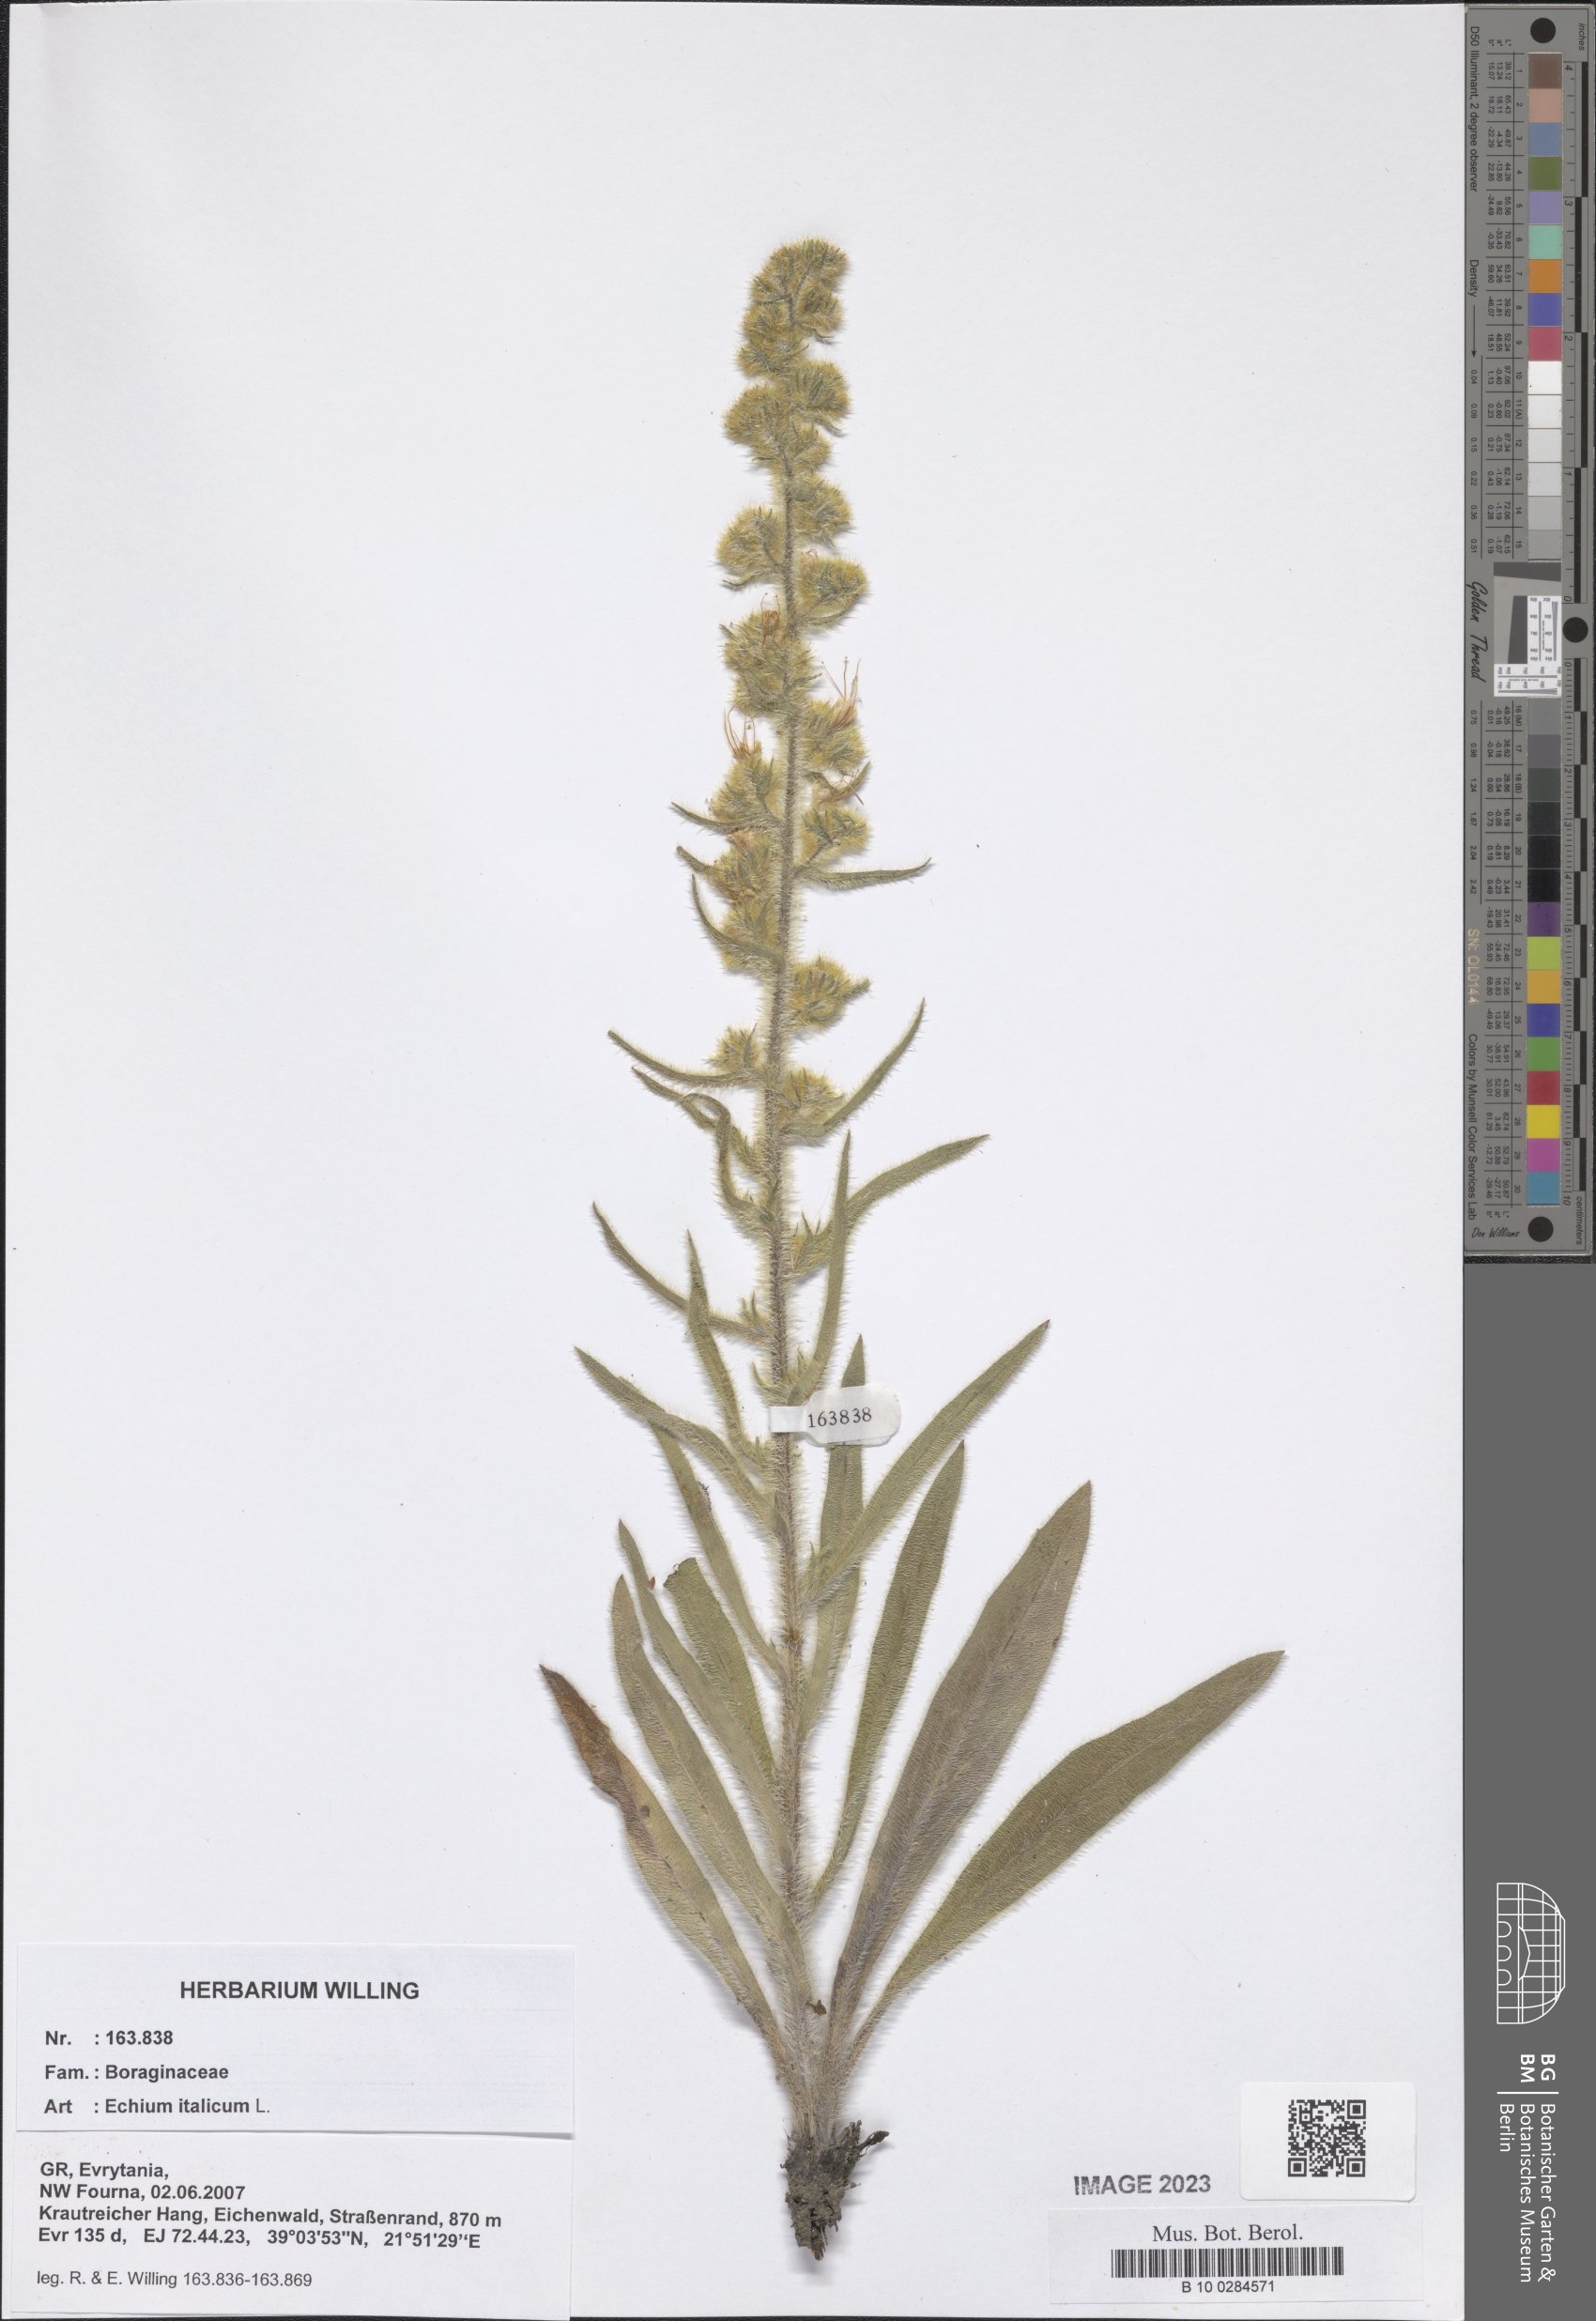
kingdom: Plantae
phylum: Tracheophyta
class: Magnoliopsida
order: Boraginales
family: Boraginaceae
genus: Echium
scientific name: Echium italicum
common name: Italian viper's bugloss
